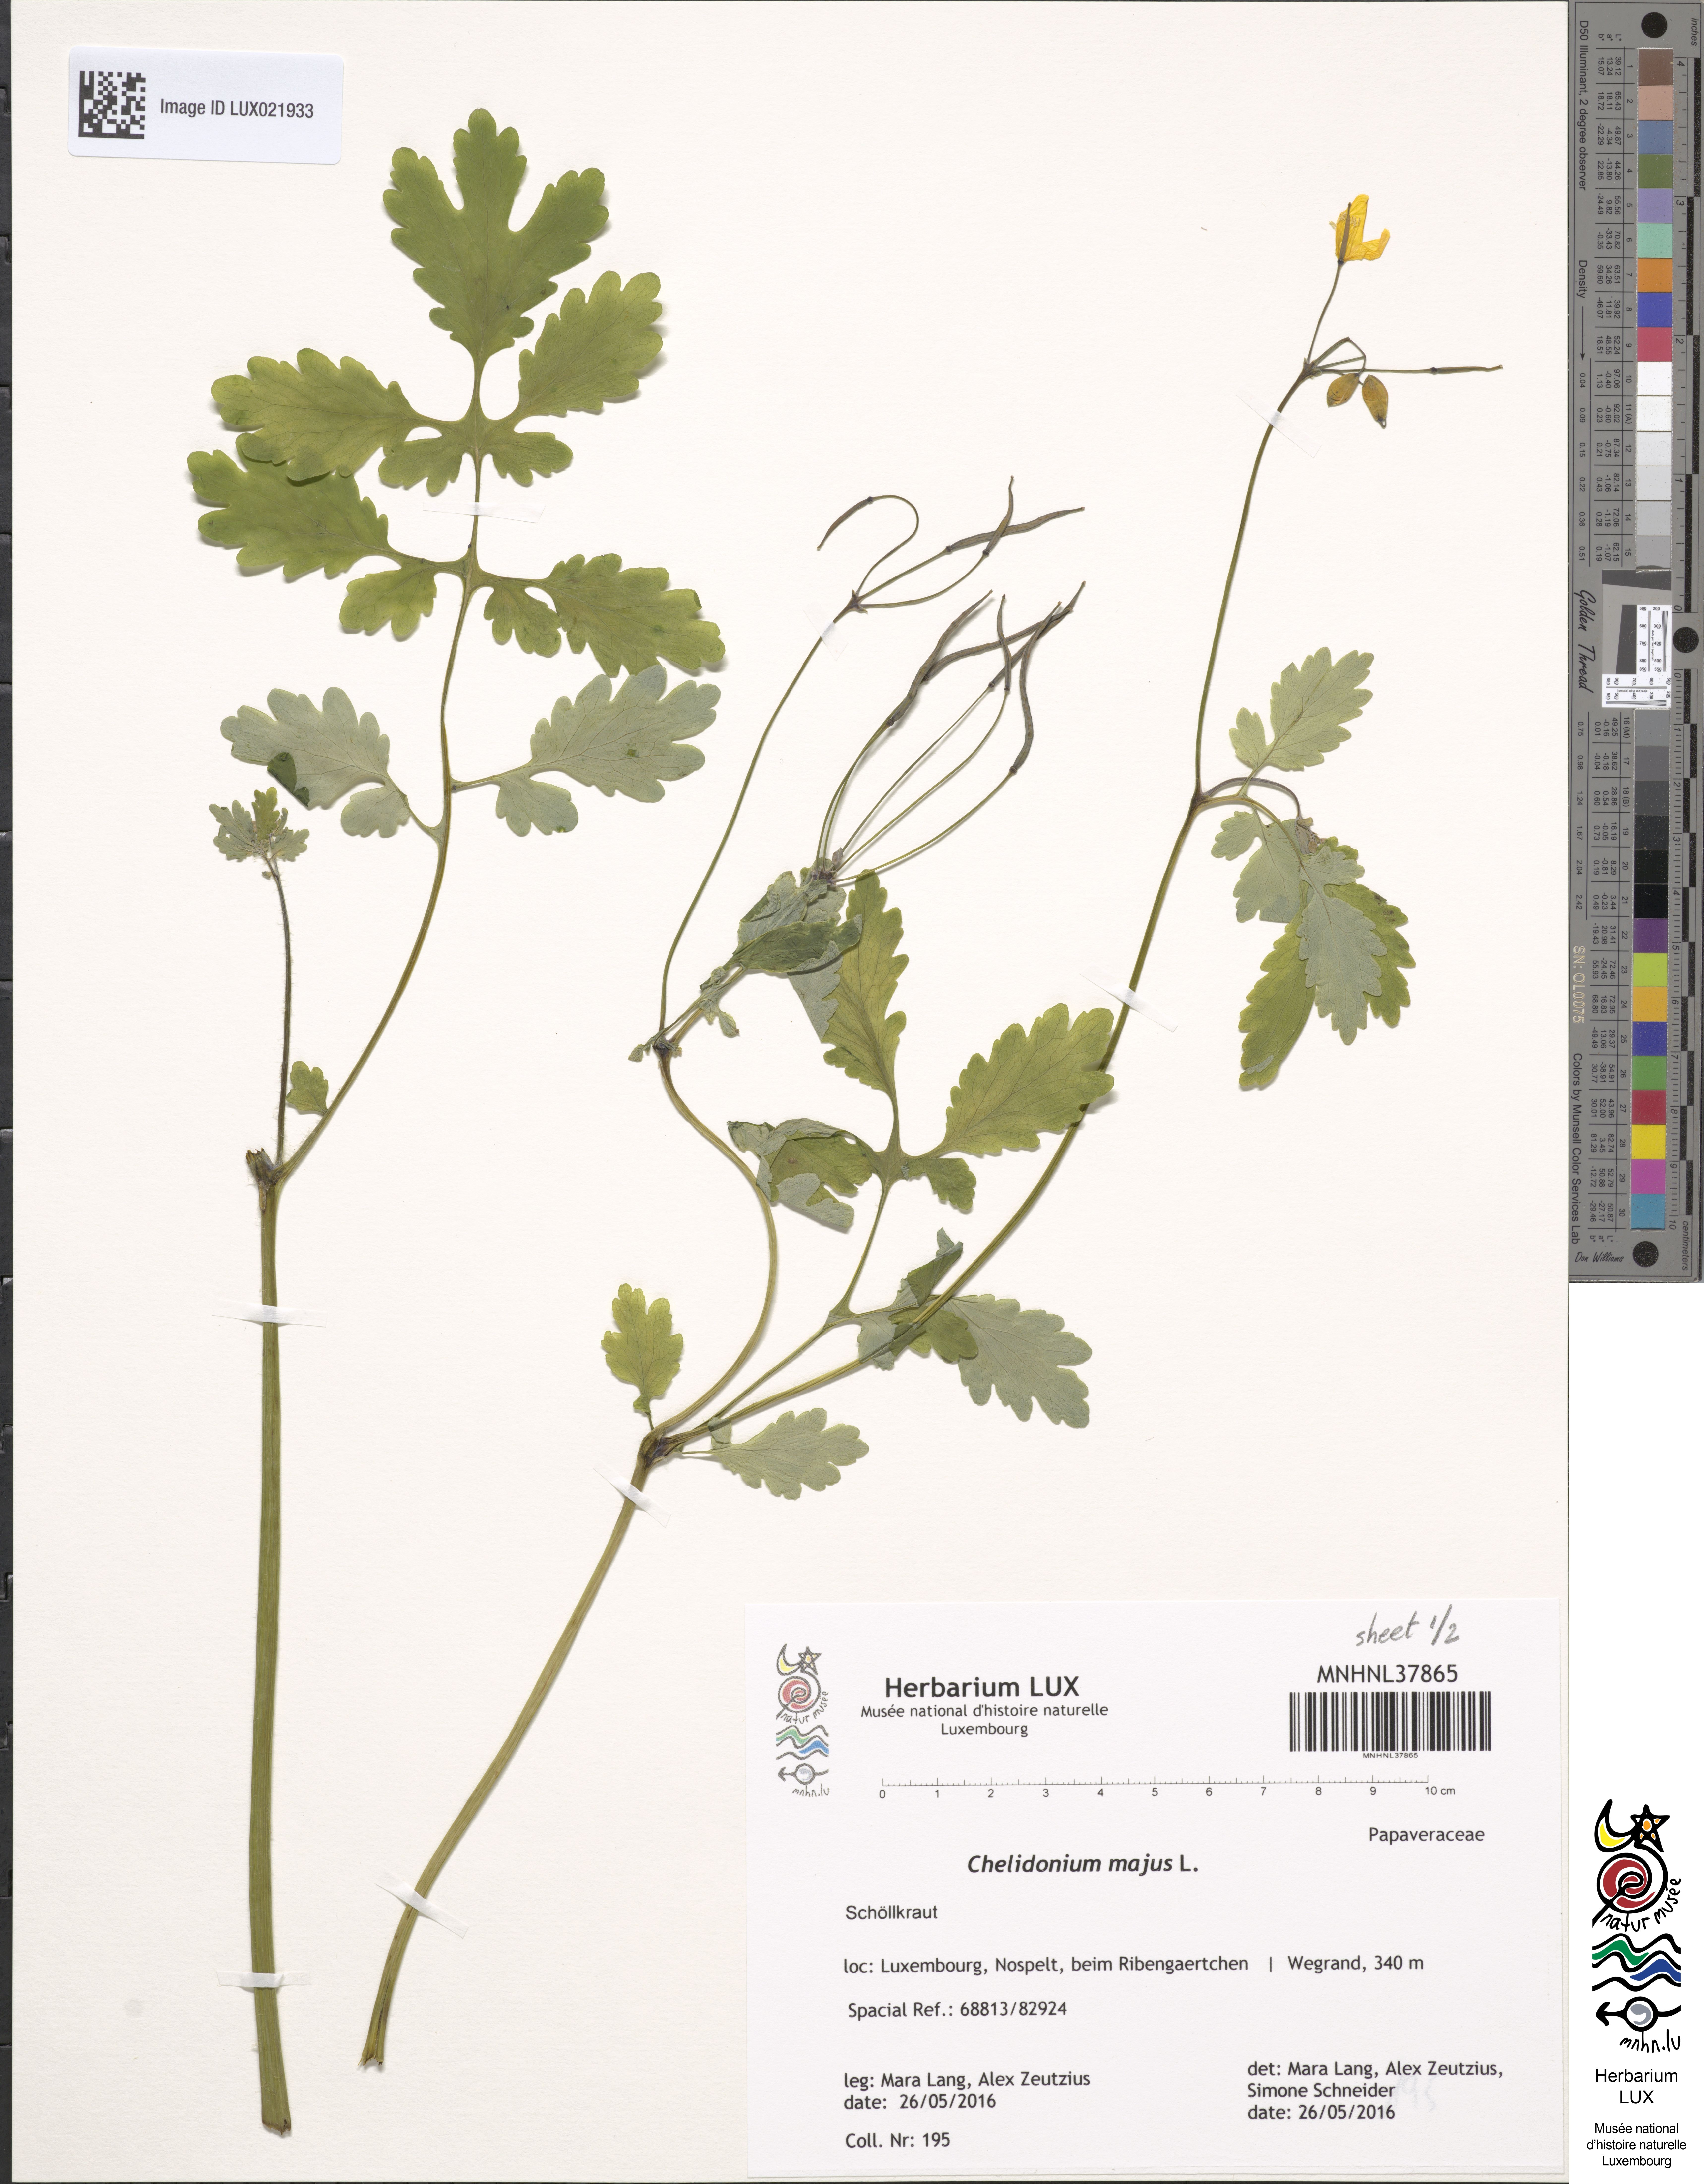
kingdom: Plantae
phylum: Tracheophyta
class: Magnoliopsida
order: Ranunculales
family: Papaveraceae
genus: Chelidonium
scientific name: Chelidonium majus
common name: Greater celandine
